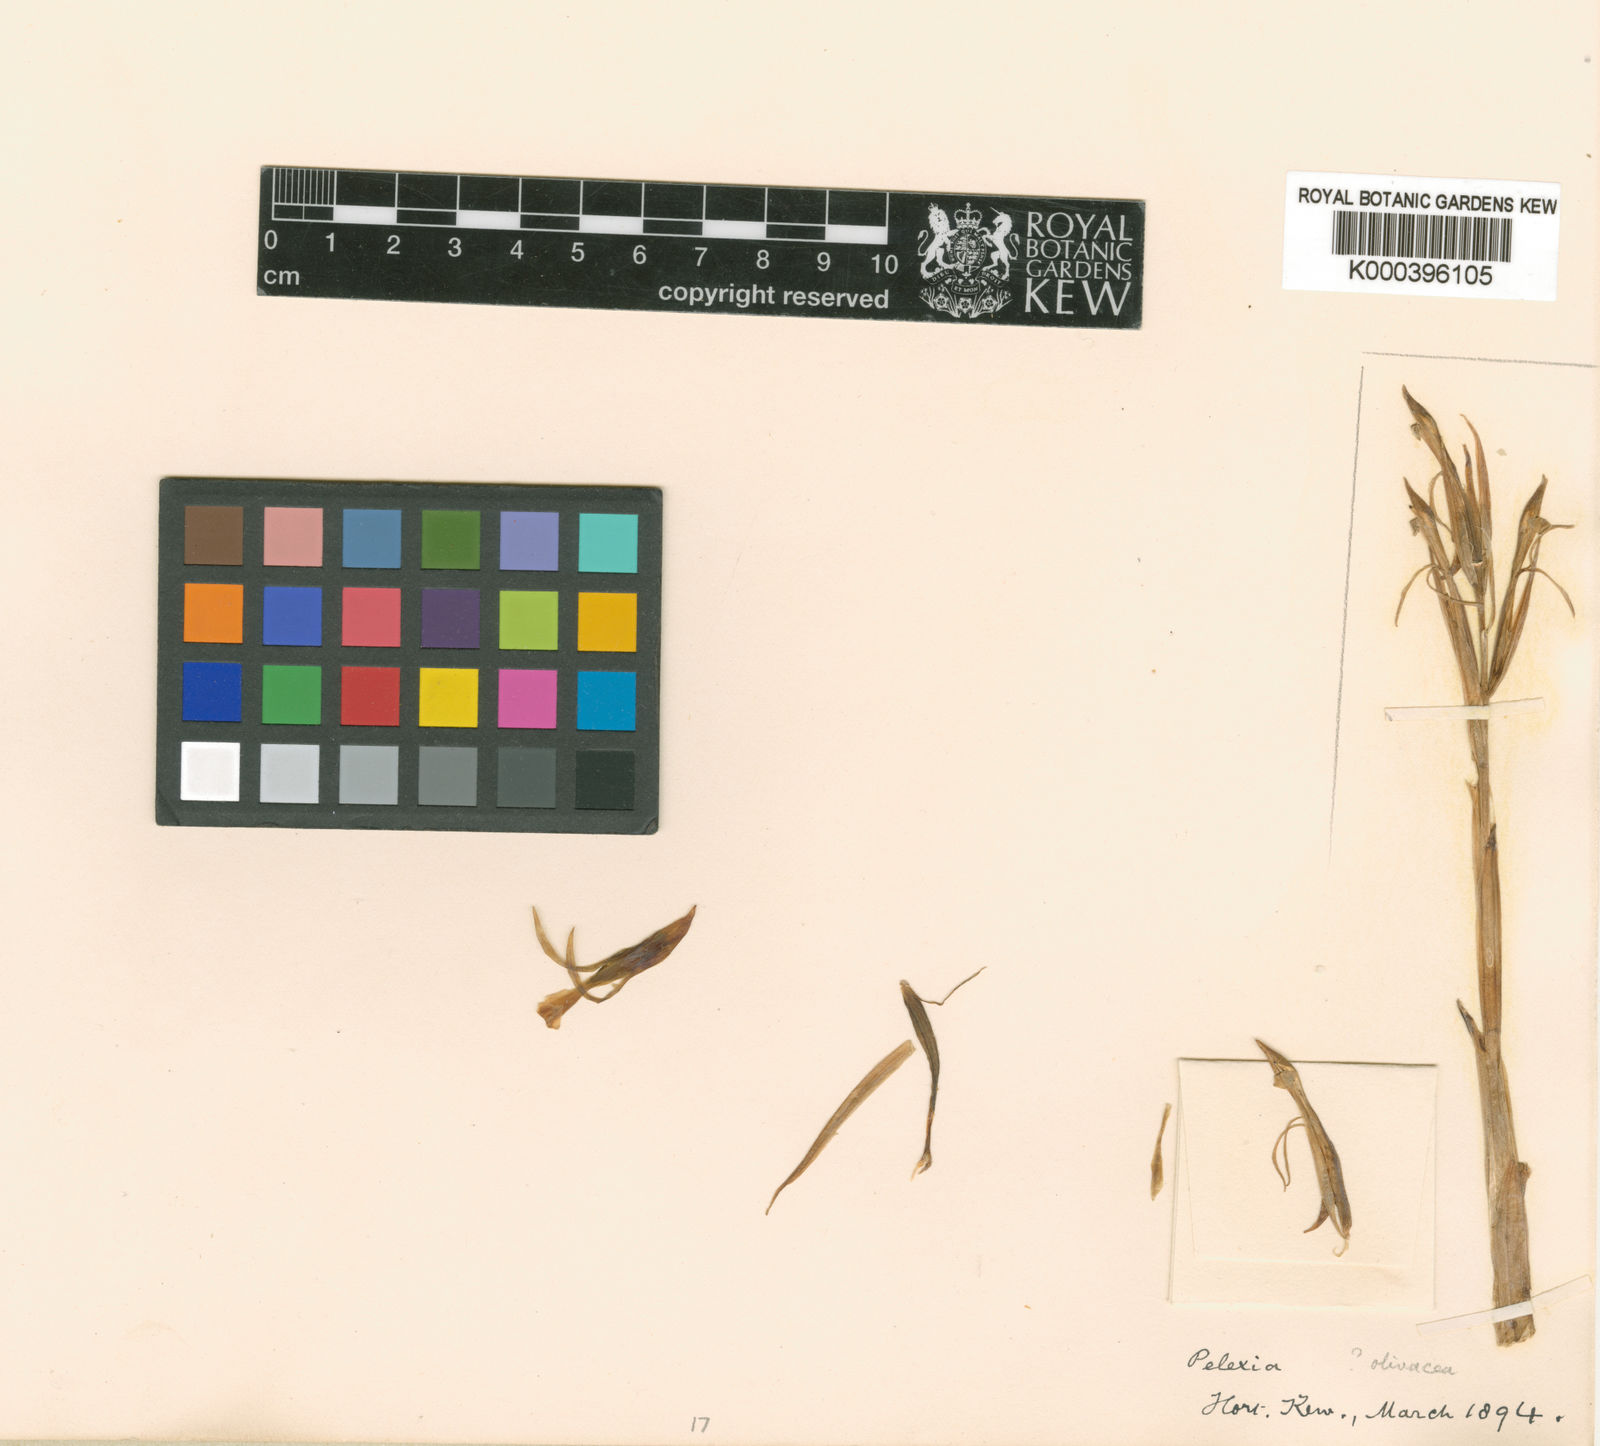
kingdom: Plantae
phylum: Tracheophyta
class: Liliopsida
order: Asparagales
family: Orchidaceae
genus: Pelexia
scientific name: Pelexia olivacea
